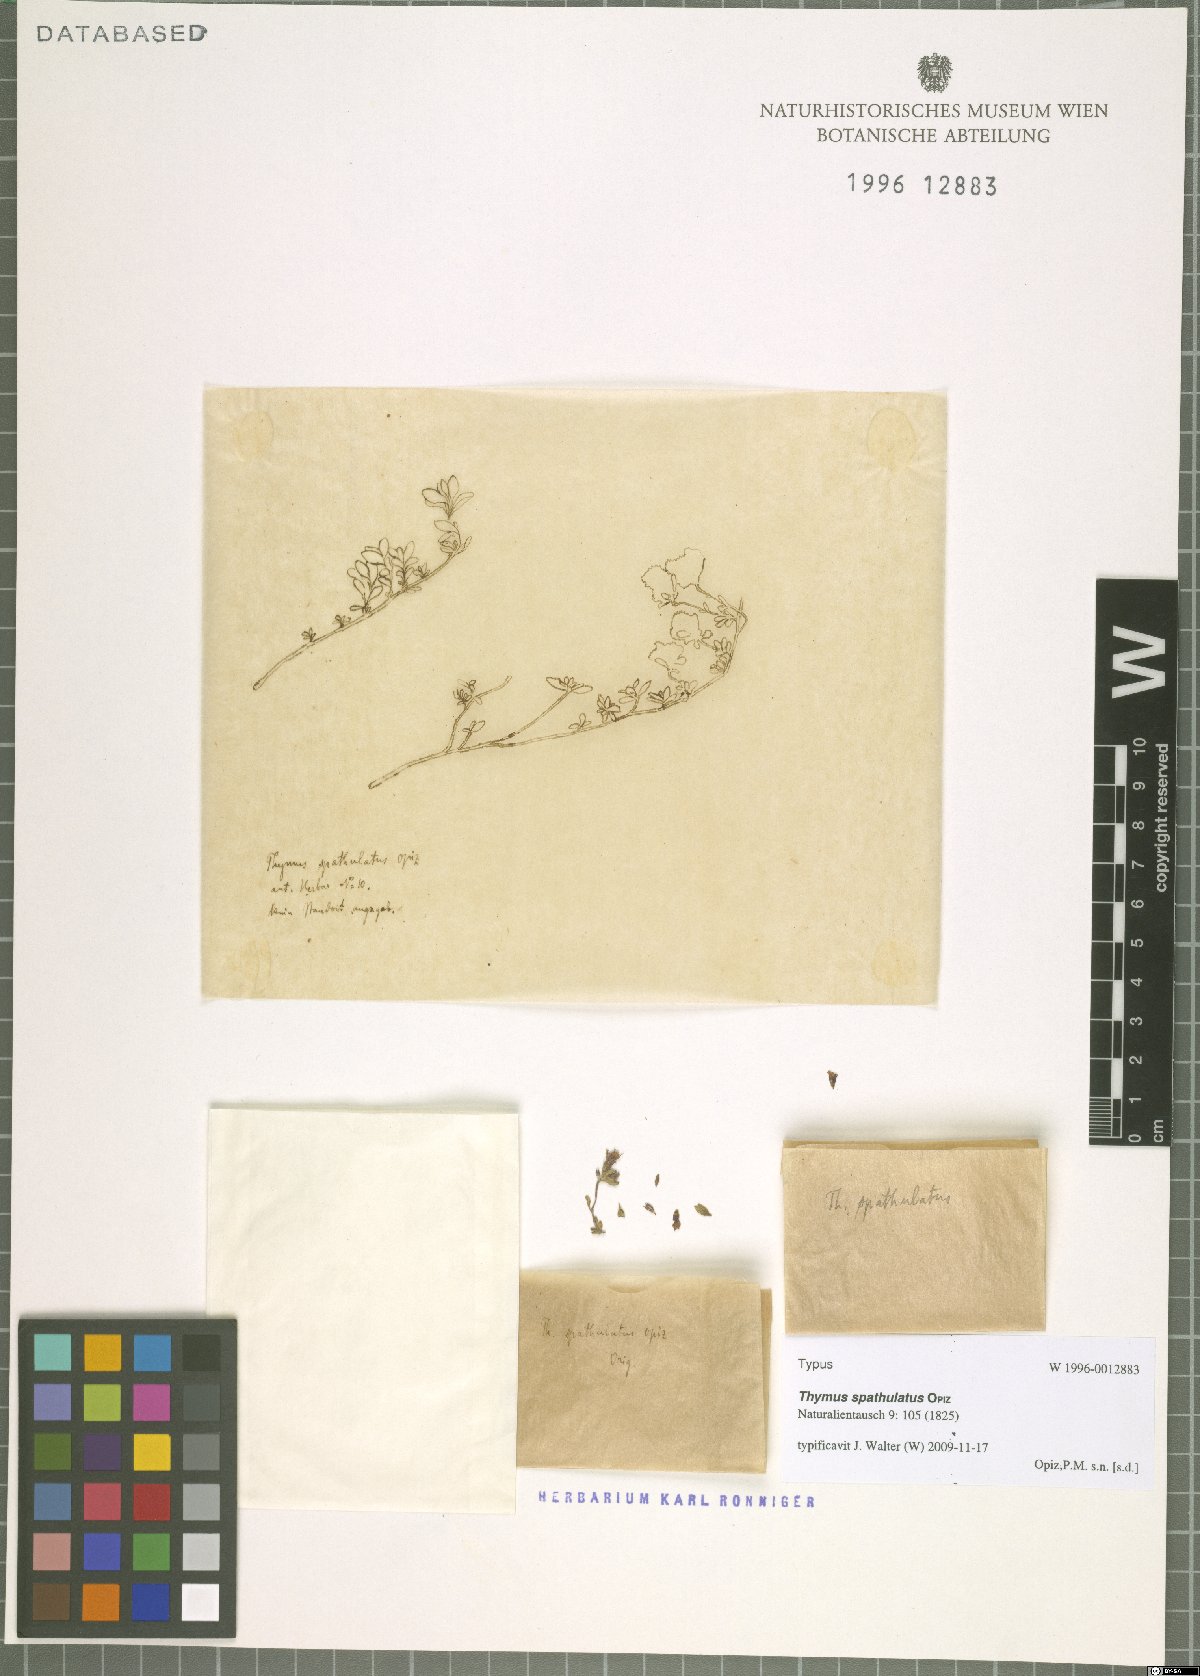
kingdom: Plantae
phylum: Tracheophyta
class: Magnoliopsida
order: Lamiales
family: Lamiaceae
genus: Thymus
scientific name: Thymus praecox
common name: Wild thyme
